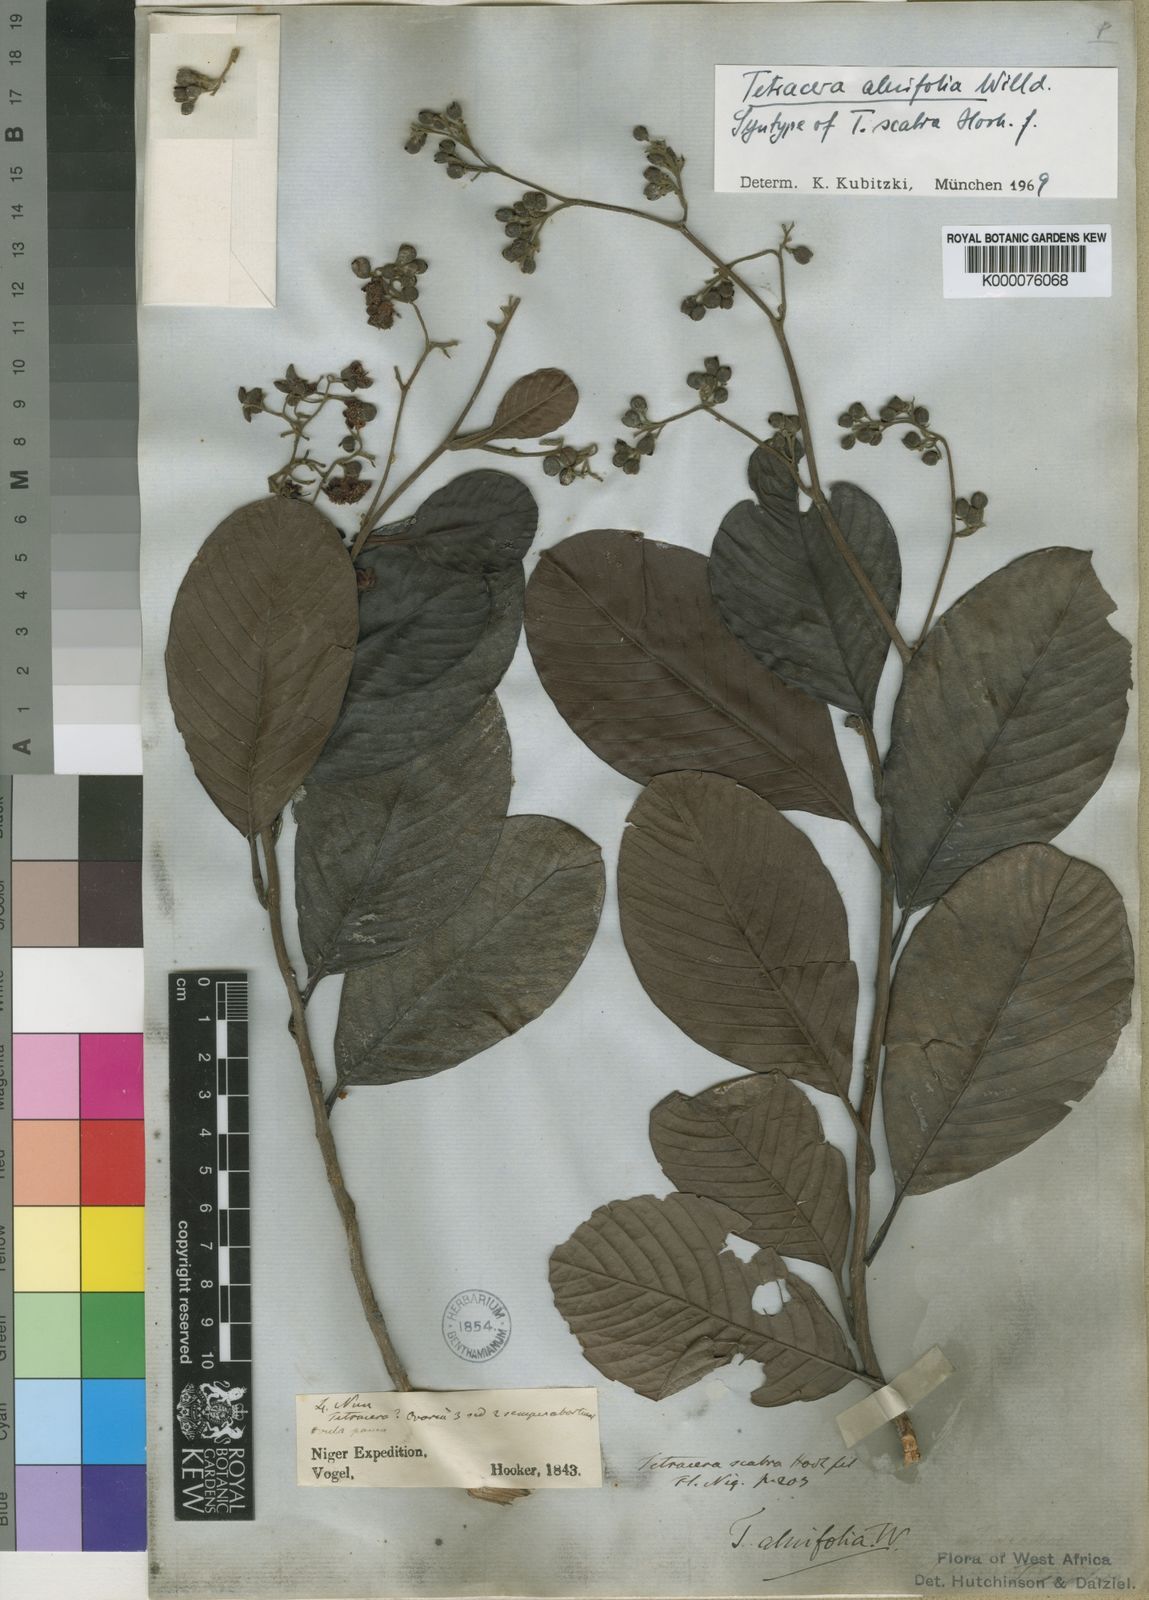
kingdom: Plantae
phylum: Tracheophyta
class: Magnoliopsida
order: Dilleniales
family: Dilleniaceae
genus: Tetracera
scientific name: Tetracera alnifolia
